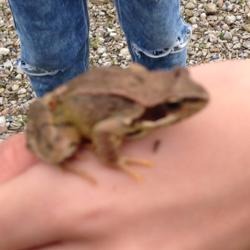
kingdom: Animalia
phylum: Chordata
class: Amphibia
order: Anura
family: Ranidae
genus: Rana
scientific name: Rana temporaria
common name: Butsnudet frø
